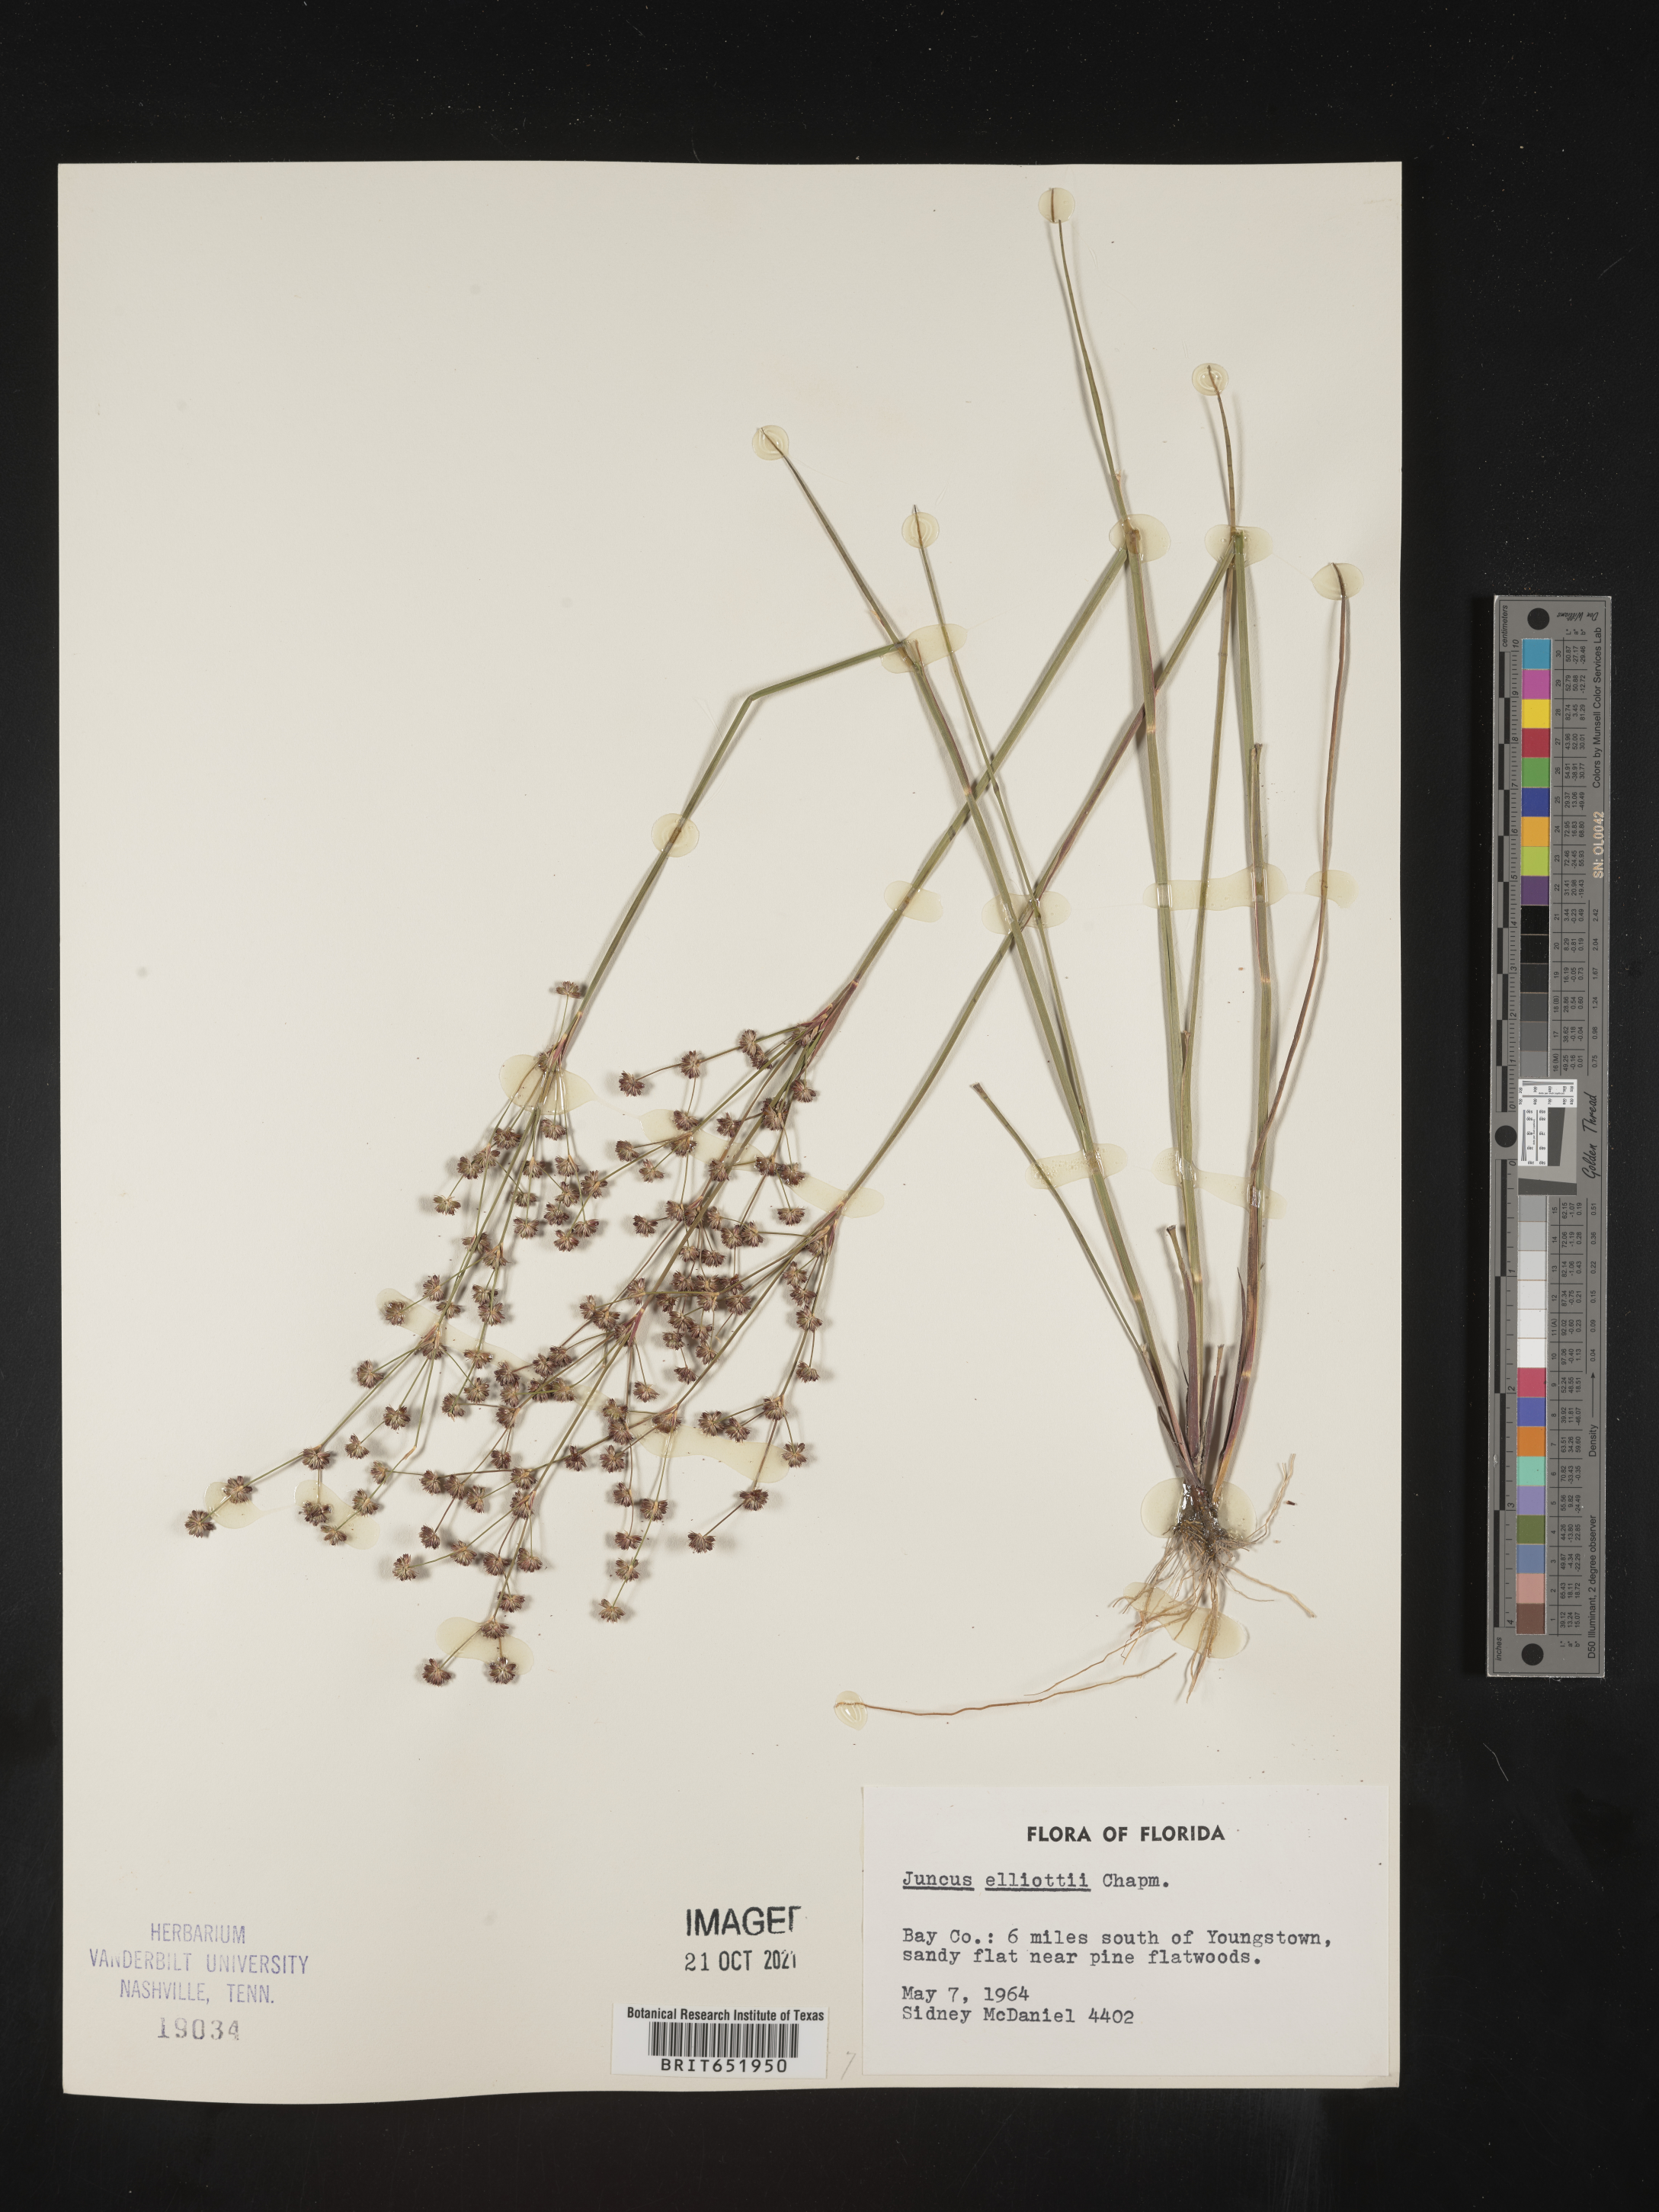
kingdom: Plantae
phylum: Tracheophyta
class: Liliopsida
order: Poales
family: Juncaceae
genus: Juncus
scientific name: Juncus elliottii
